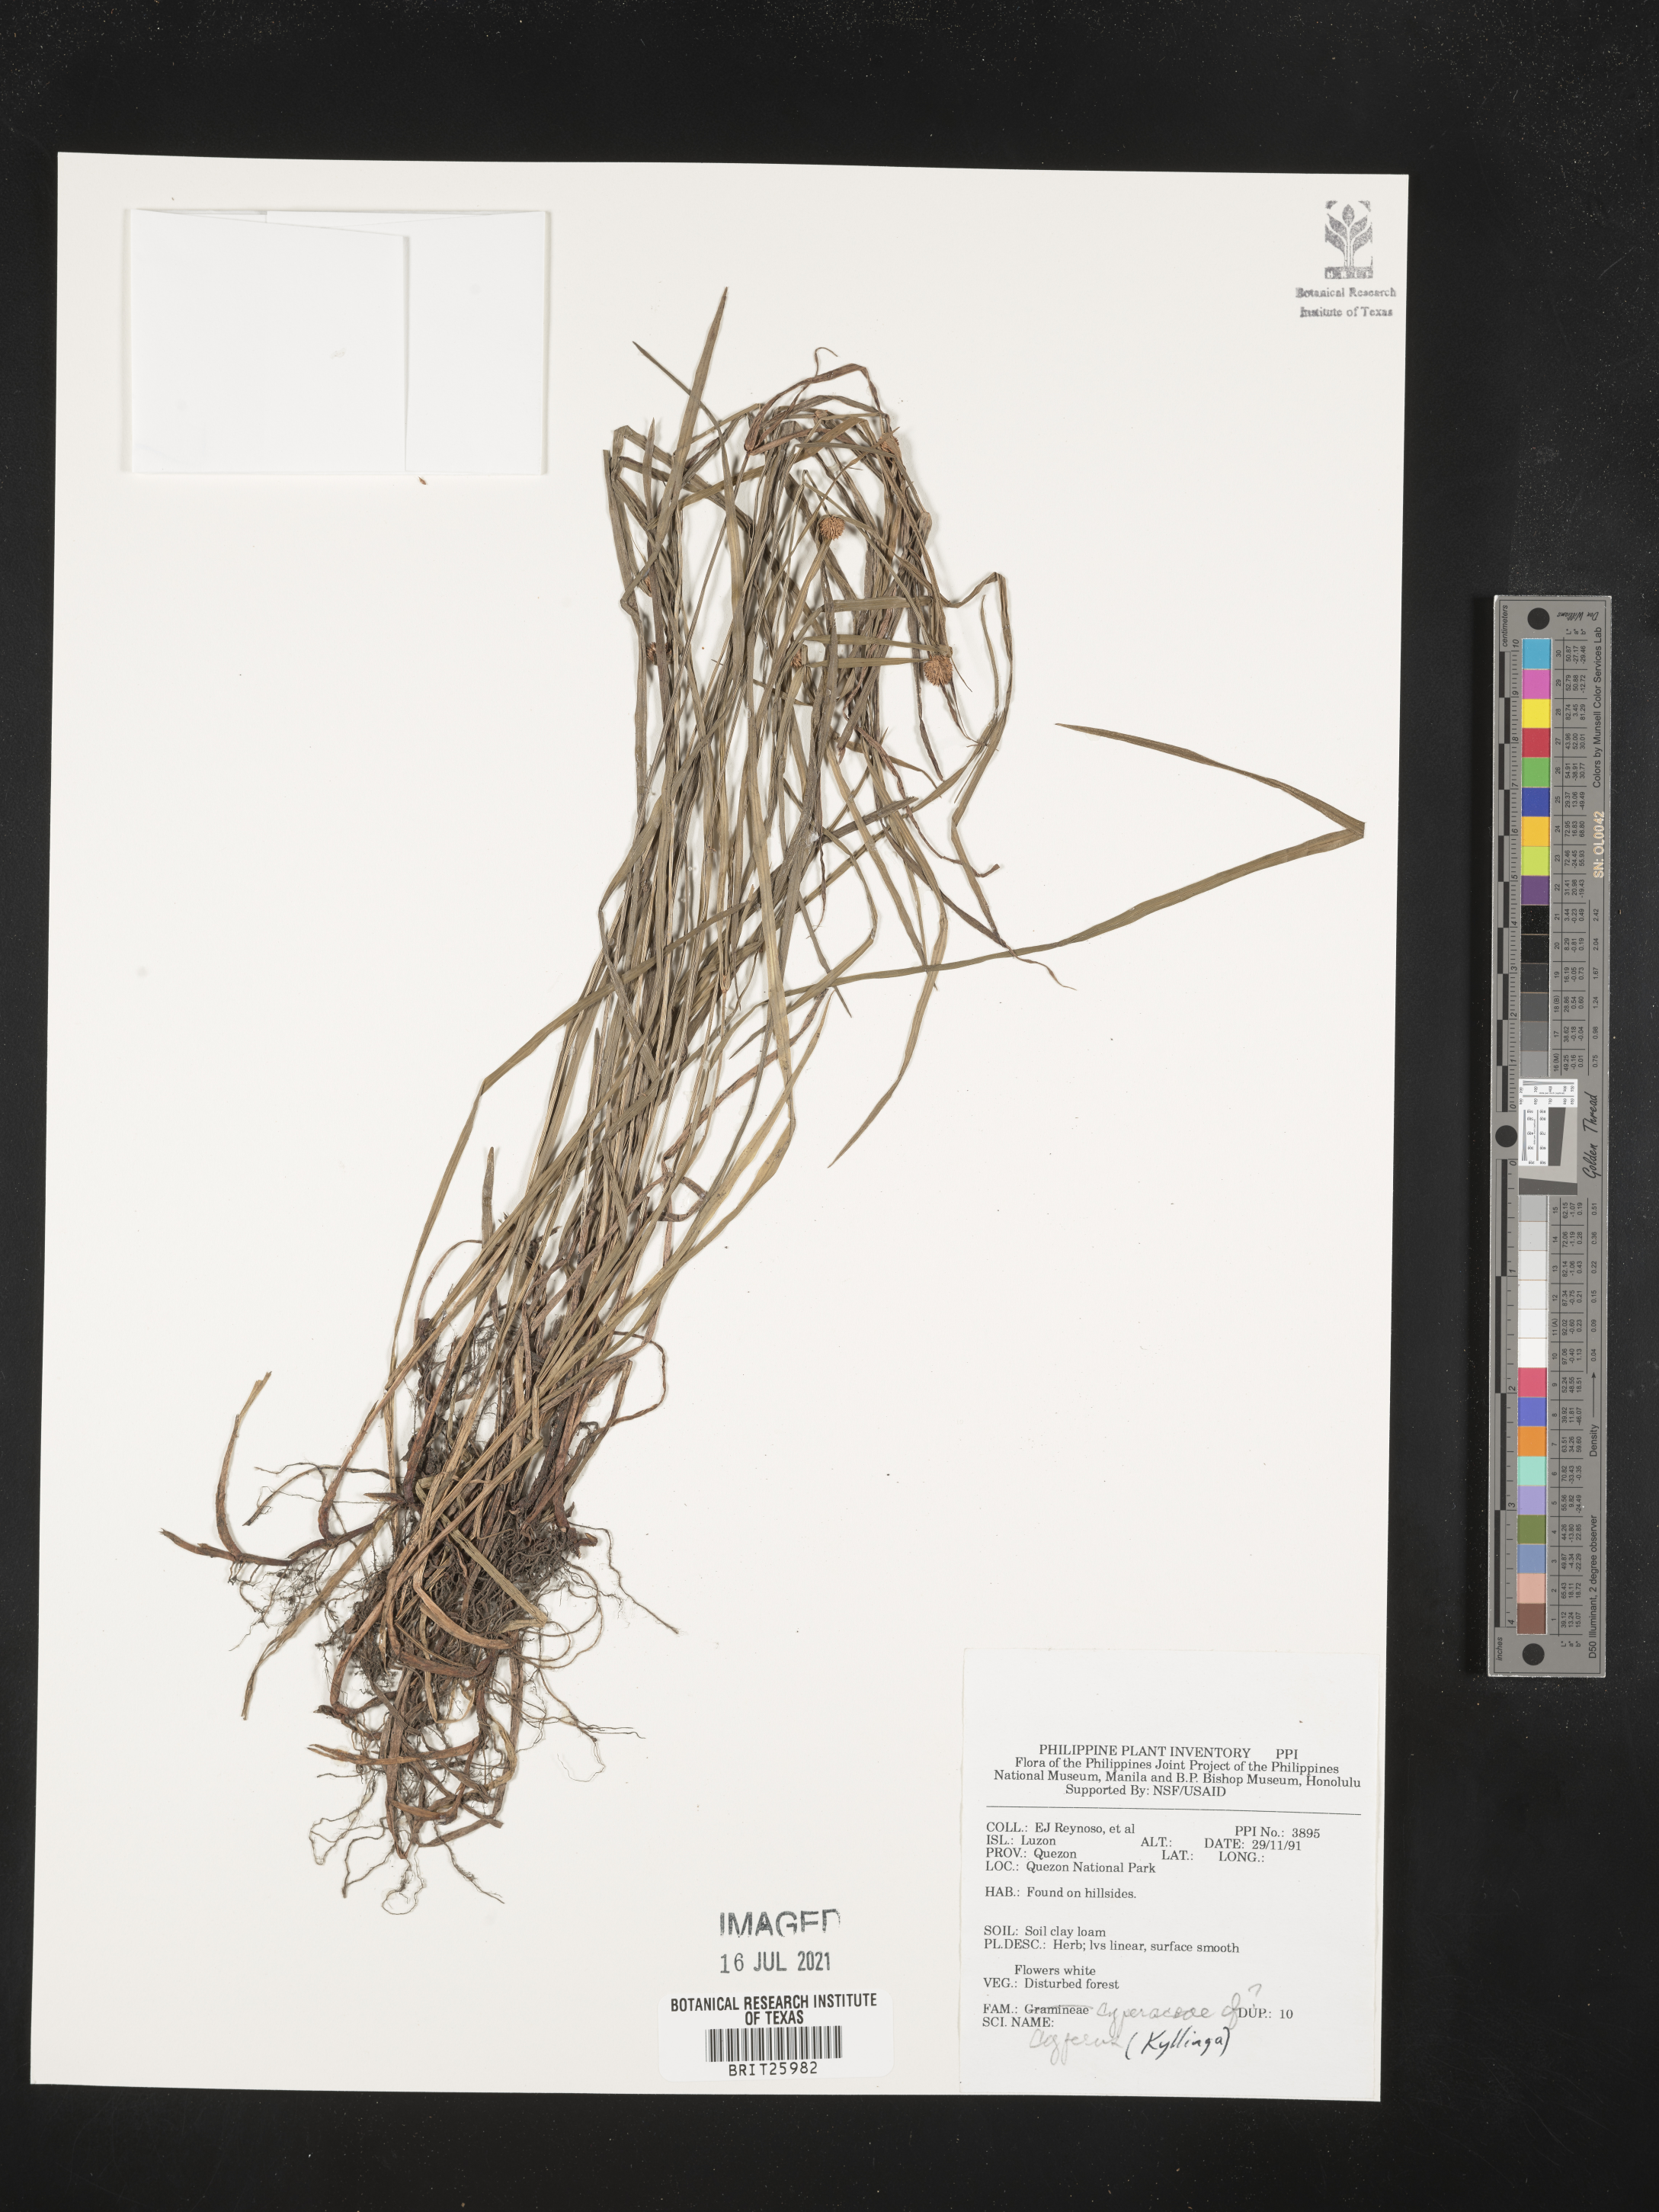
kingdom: Plantae
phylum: Tracheophyta
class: Liliopsida
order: Poales
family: Cyperaceae
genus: Cyperus
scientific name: Cyperus
